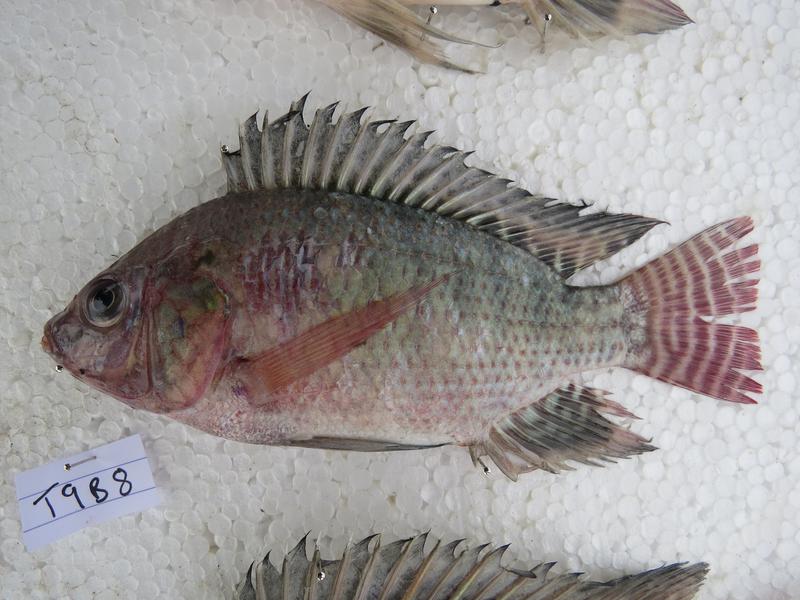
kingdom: Animalia
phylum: Chordata
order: Perciformes
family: Cichlidae
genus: Oreochromis
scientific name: Oreochromis niloticus
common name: Nile tilapia
